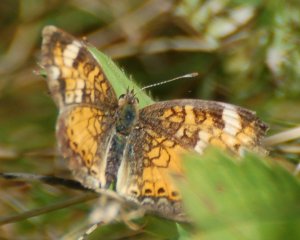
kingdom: Animalia
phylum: Arthropoda
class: Insecta
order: Lepidoptera
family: Nymphalidae
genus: Phyciodes
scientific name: Phyciodes tharos
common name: Northern Crescent
